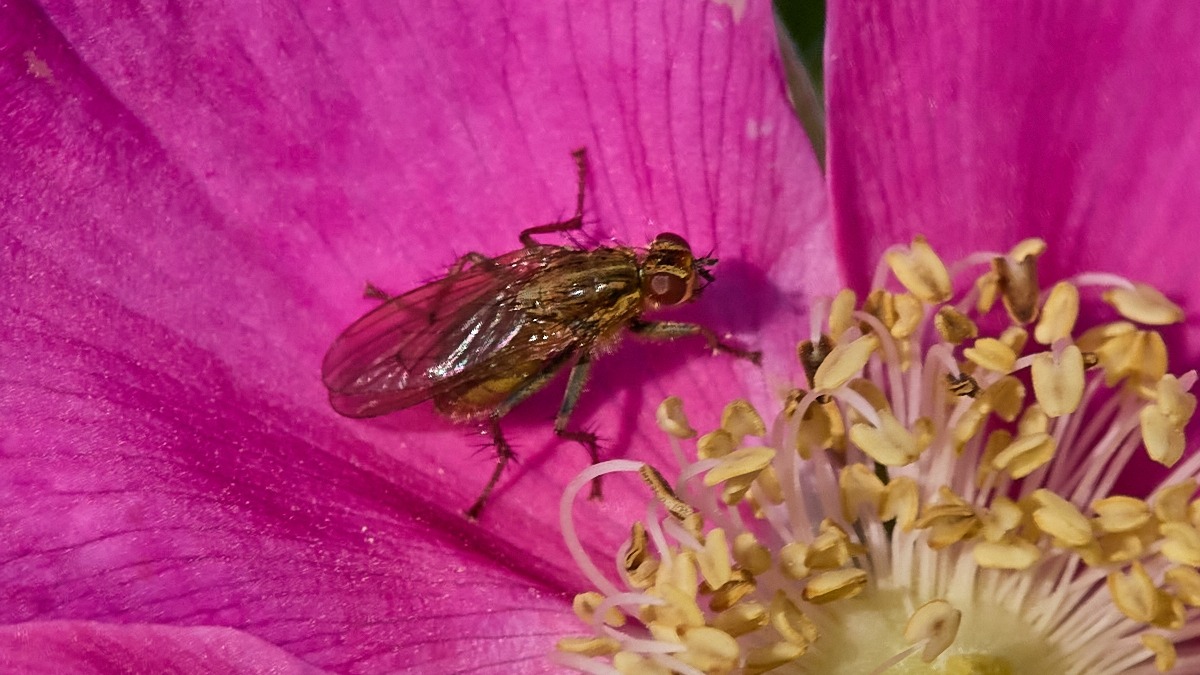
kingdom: Animalia
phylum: Arthropoda
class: Insecta
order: Diptera
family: Scathophagidae
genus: Scathophaga
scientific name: Scathophaga stercoraria
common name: Almindelig gødningsflue
